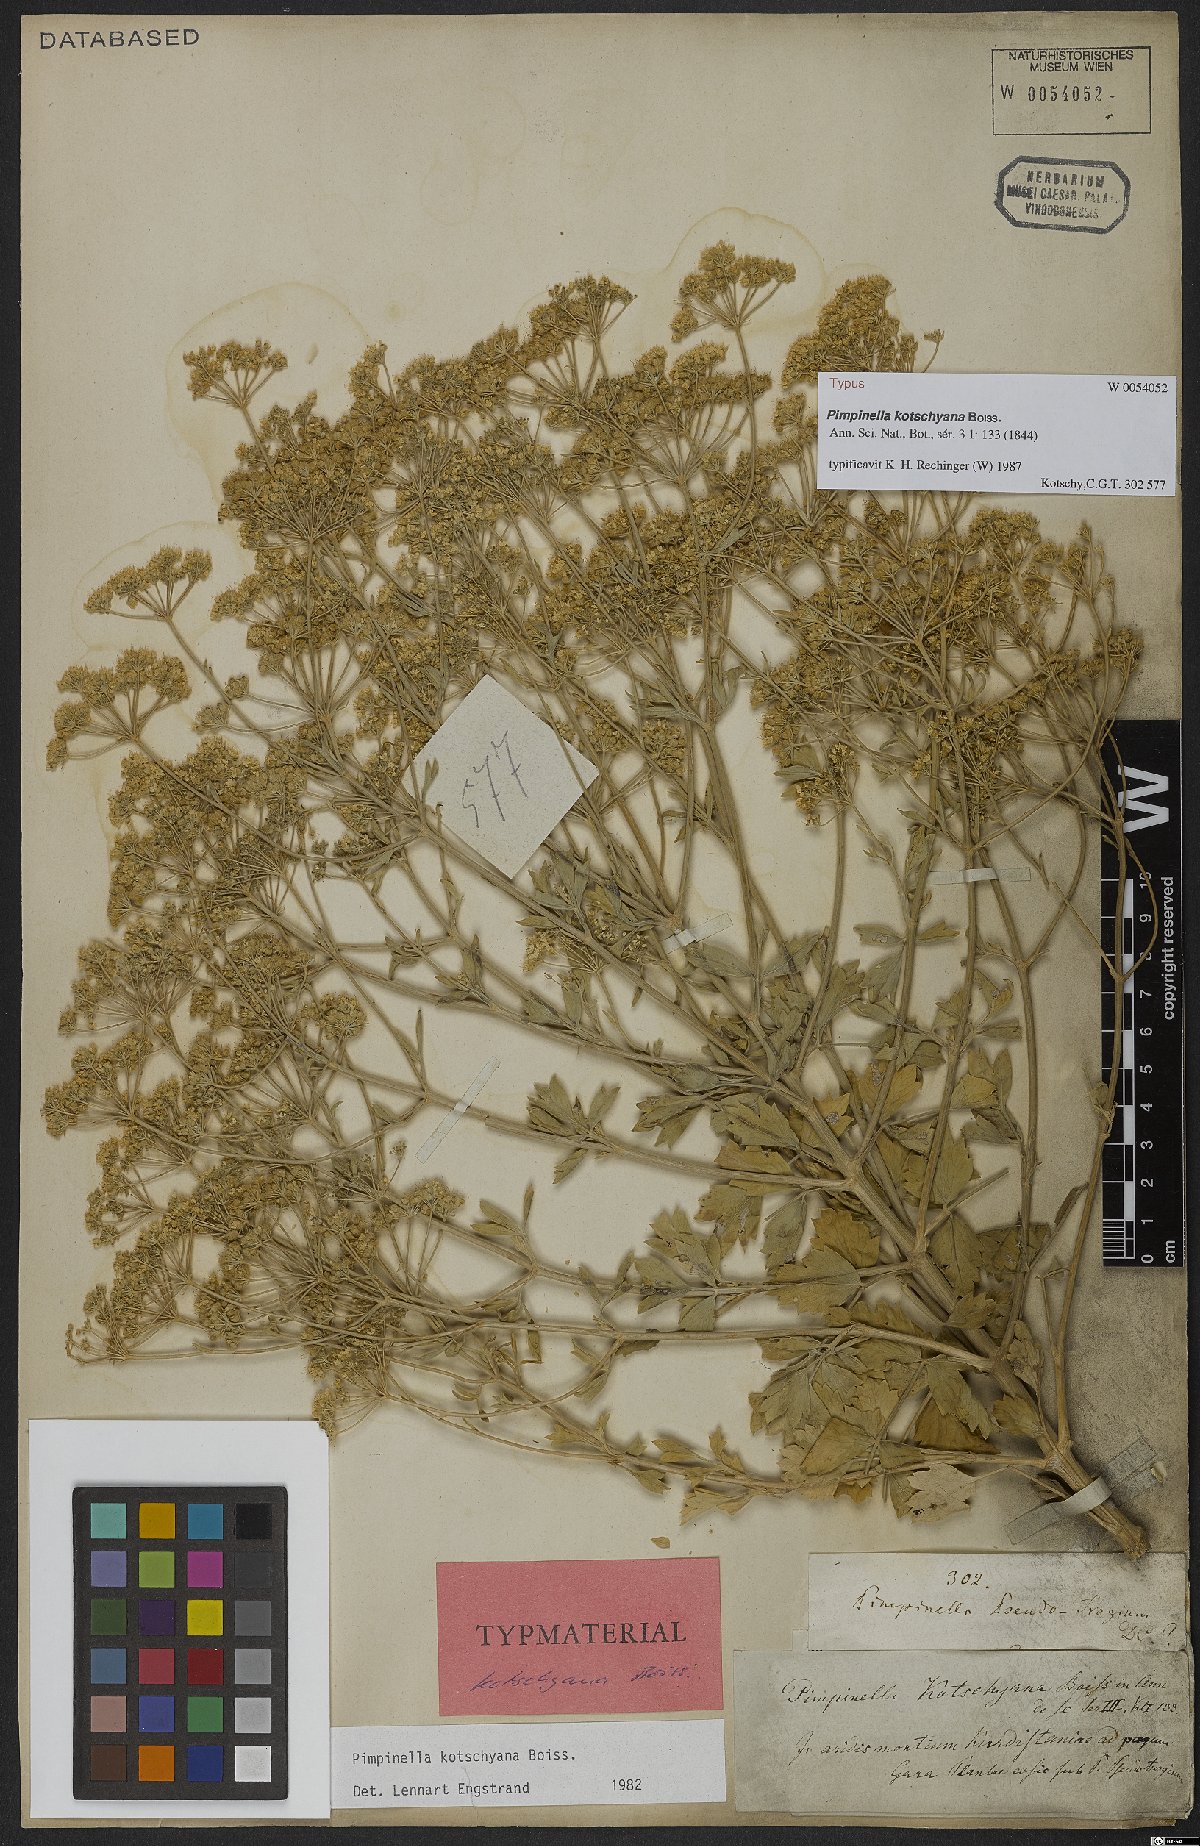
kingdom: Plantae
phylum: Tracheophyta
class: Magnoliopsida
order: Apiales
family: Apiaceae
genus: Pimpinella
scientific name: Pimpinella kotschyana
